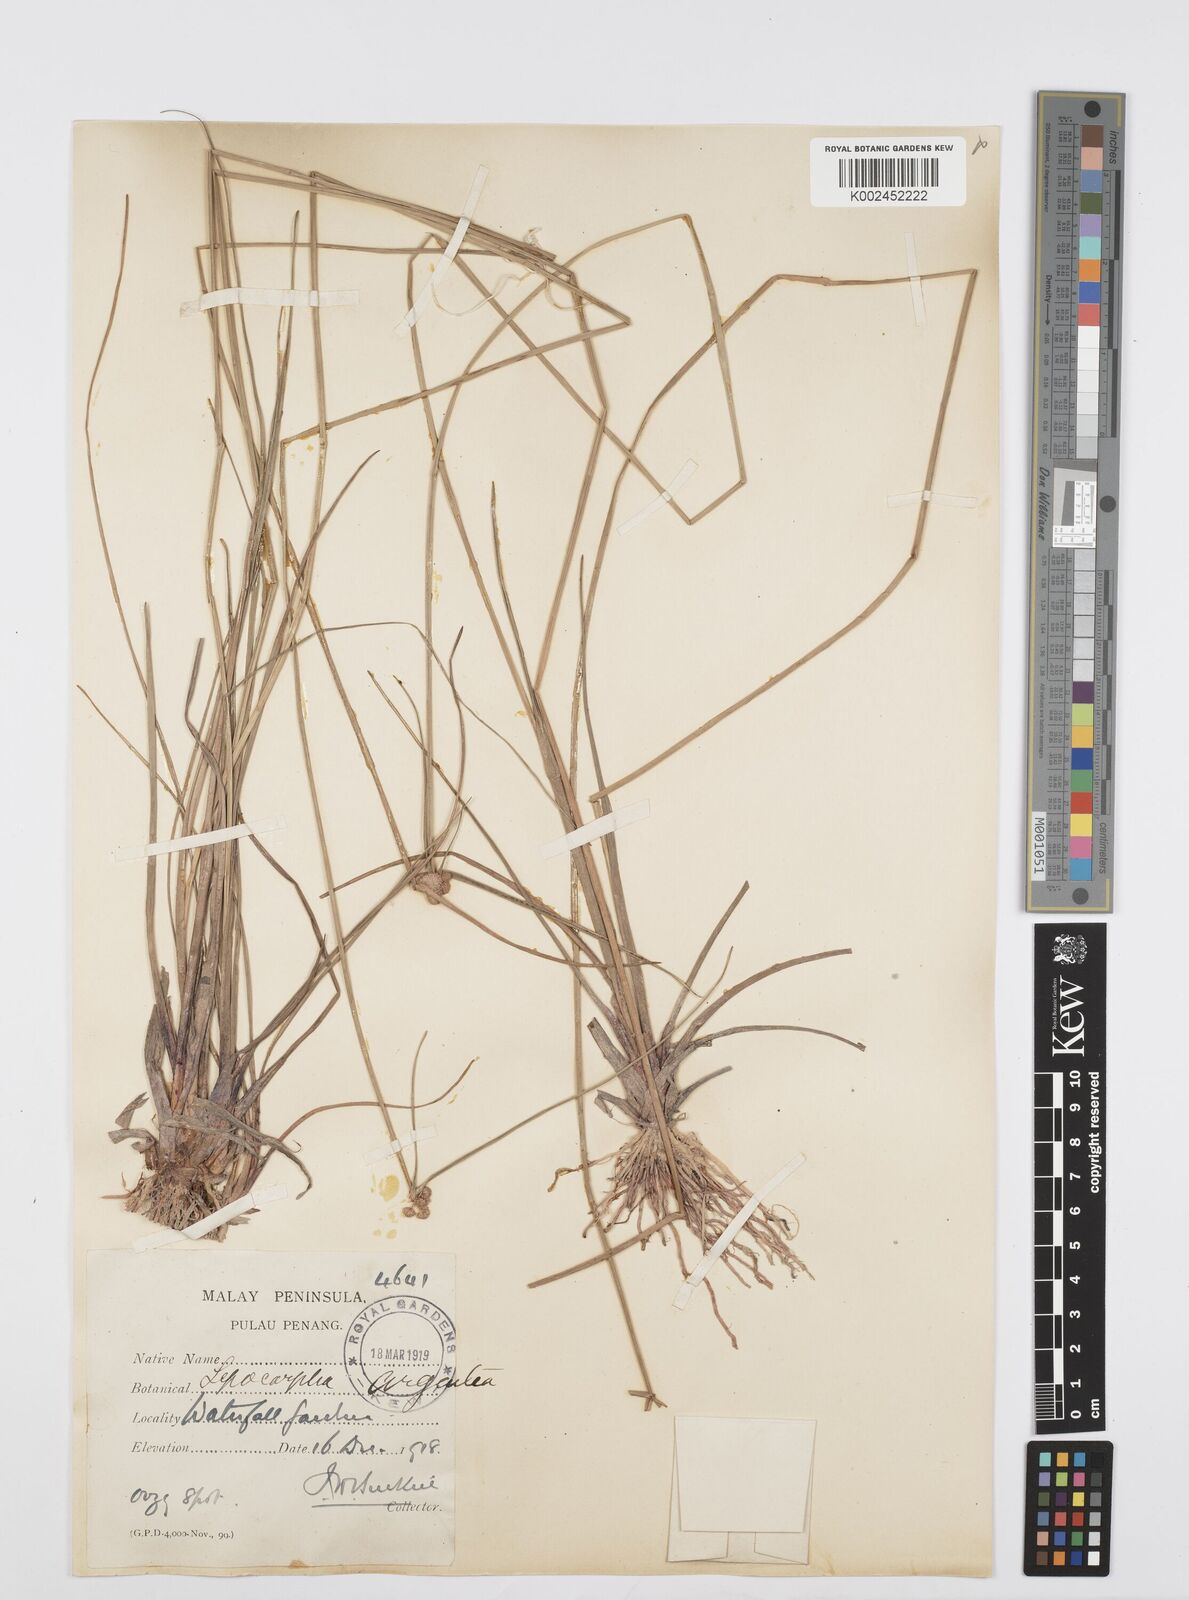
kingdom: Plantae
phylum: Tracheophyta
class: Liliopsida
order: Poales
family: Cyperaceae
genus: Cyperus
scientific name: Cyperus
